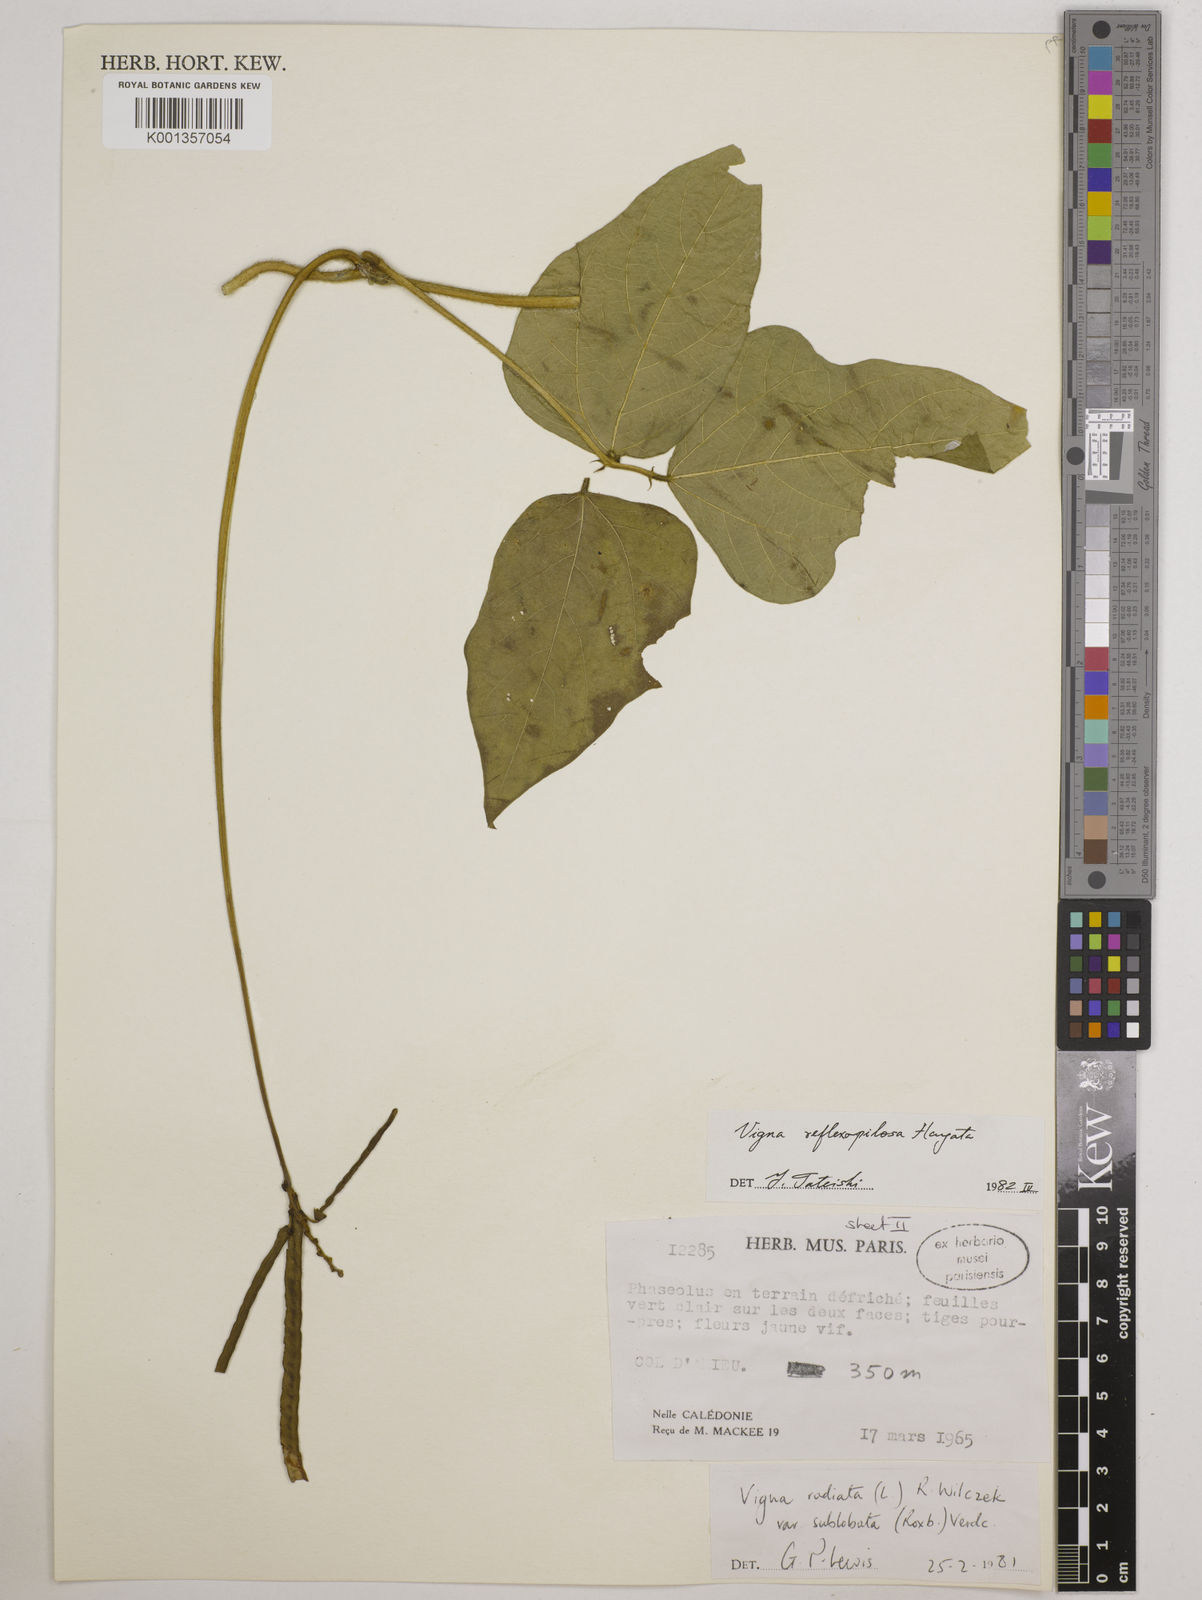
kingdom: Plantae
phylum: Tracheophyta
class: Magnoliopsida
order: Fabales
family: Fabaceae
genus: Vigna
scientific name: Vigna reflexopilosa
